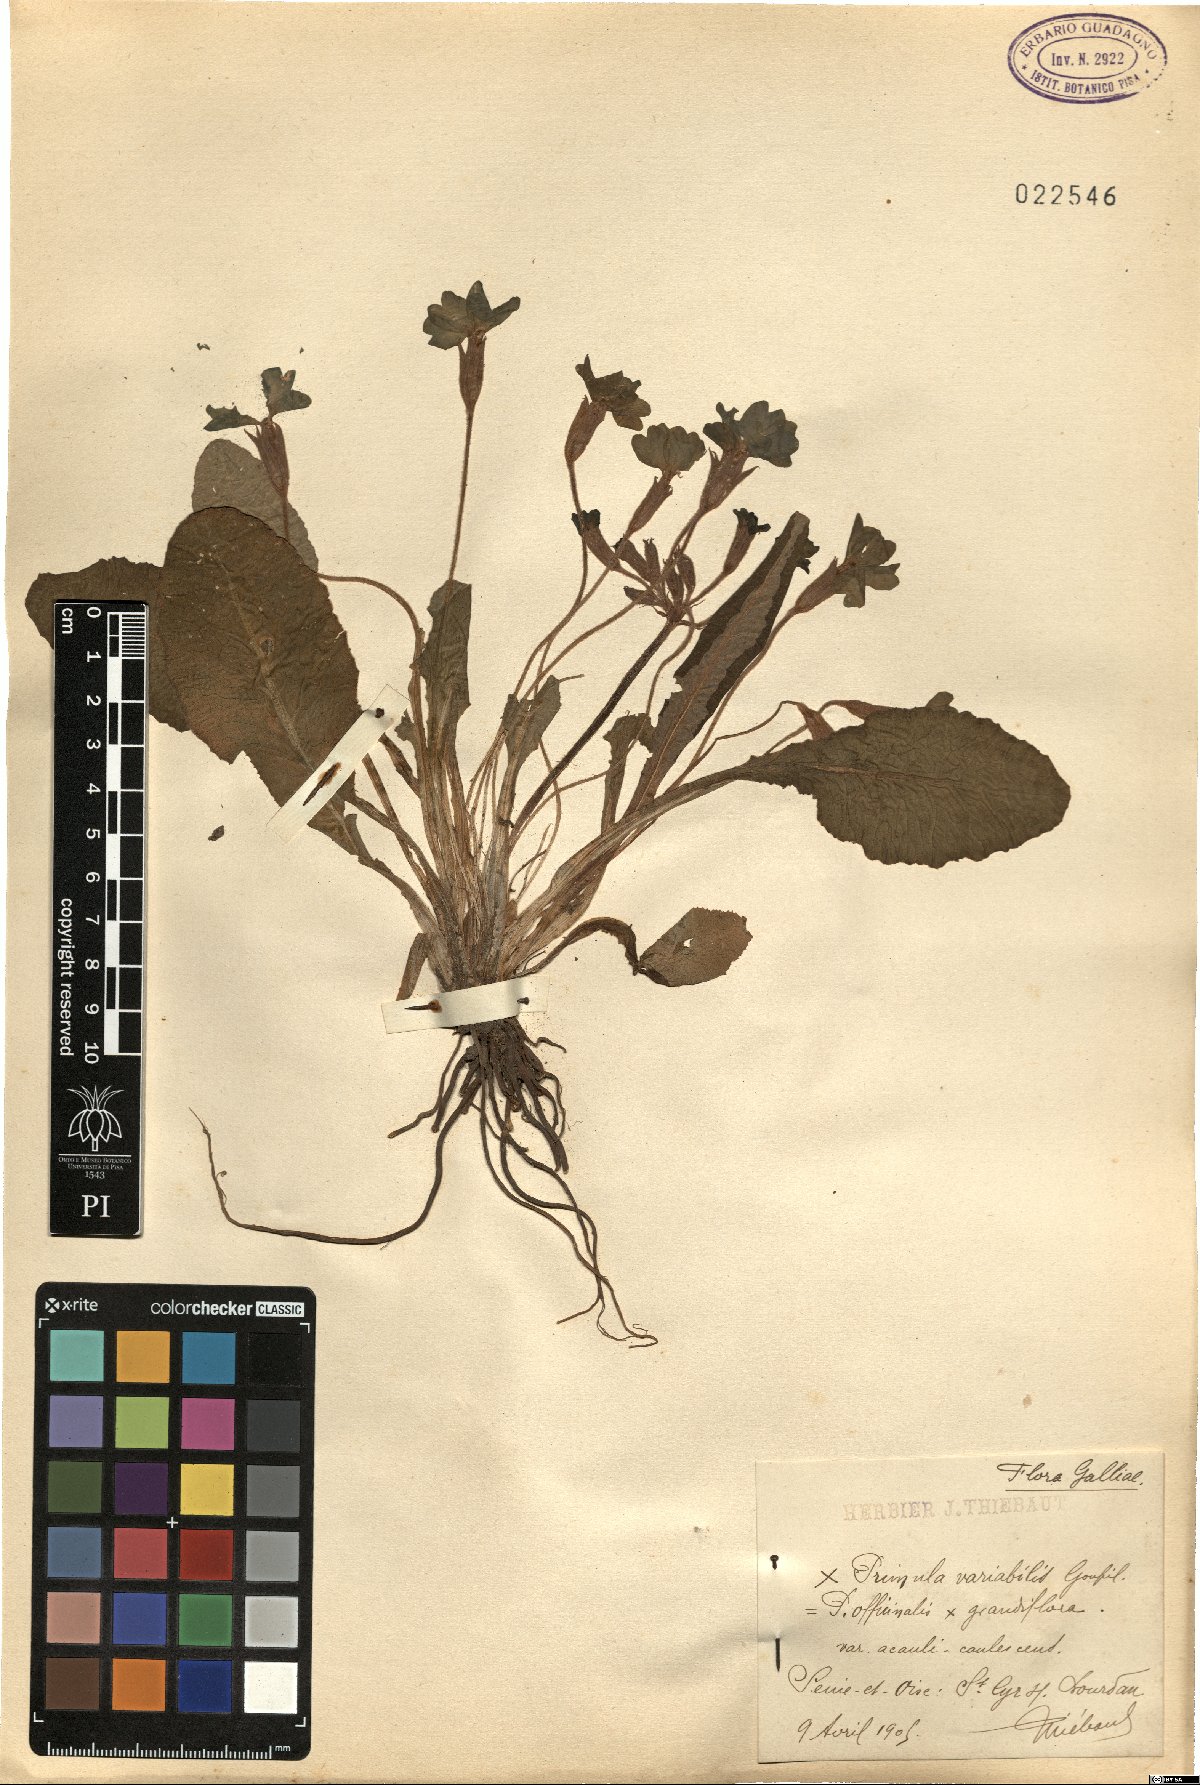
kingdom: Plantae
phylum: Tracheophyta
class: Magnoliopsida
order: Ericales
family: Primulaceae
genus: Primula
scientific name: Primula
